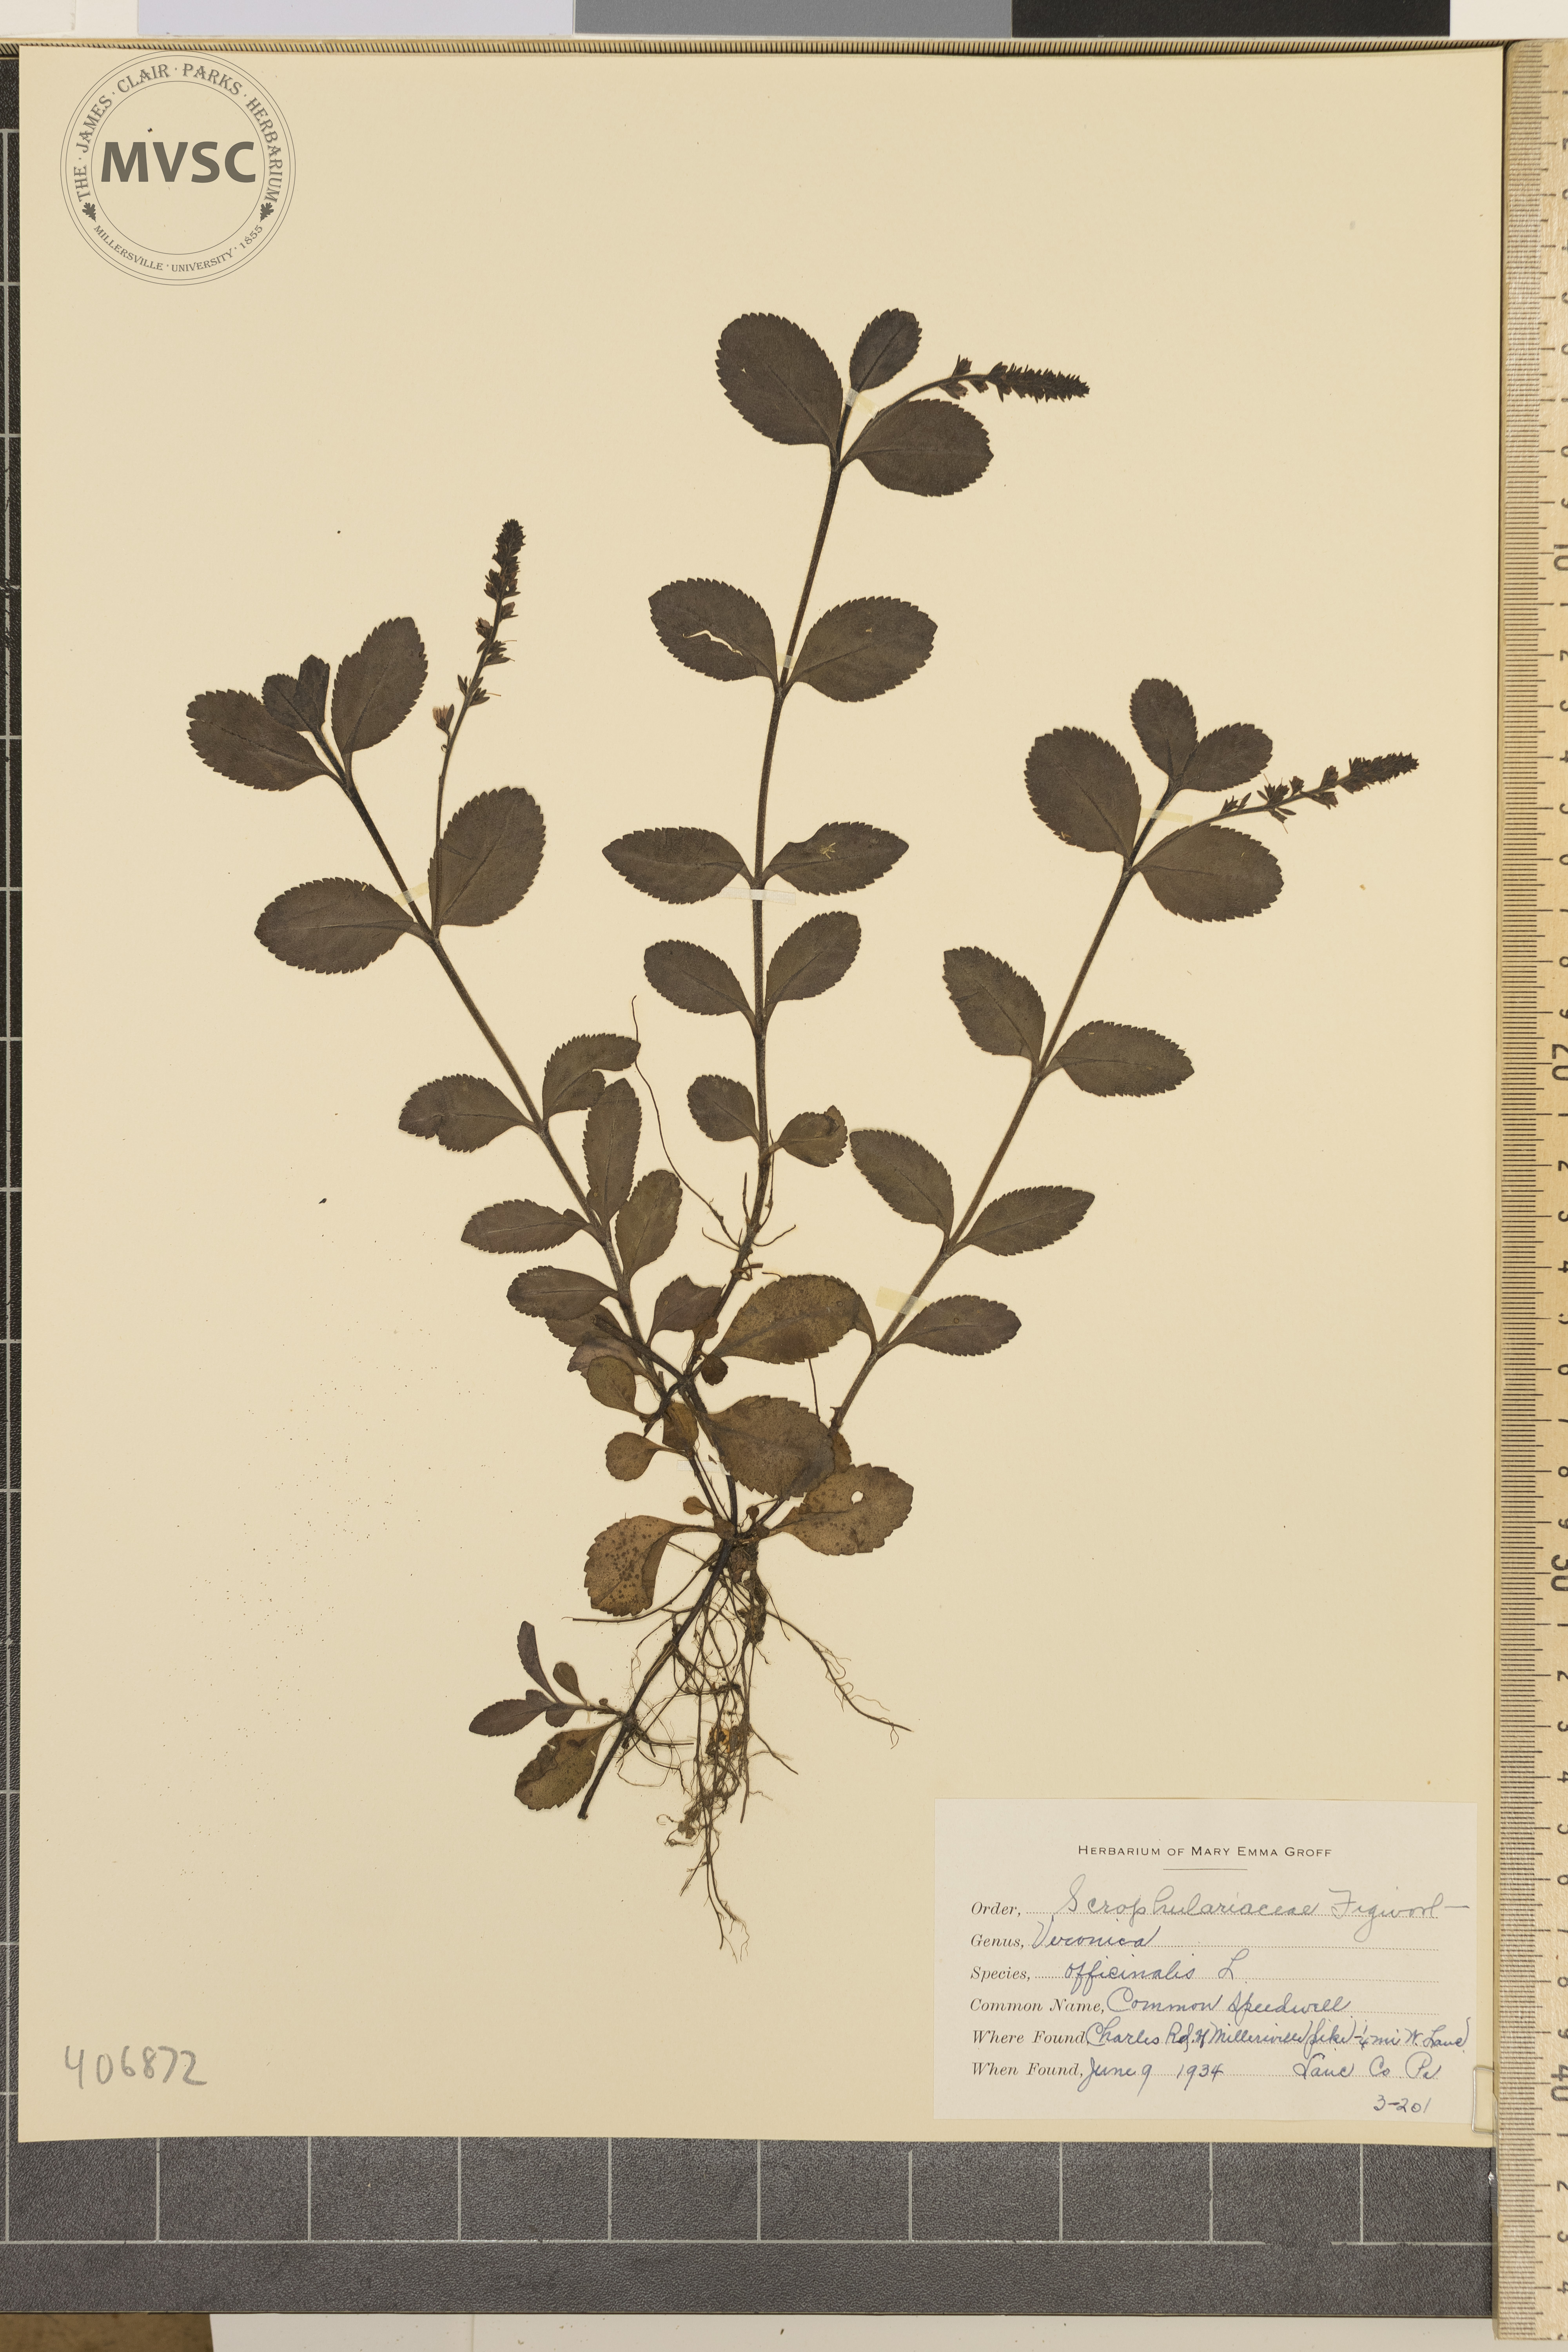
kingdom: Plantae
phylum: Tracheophyta
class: Magnoliopsida
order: Lamiales
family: Plantaginaceae
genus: Veronica
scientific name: Veronica officinalis
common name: Common Speedwell
